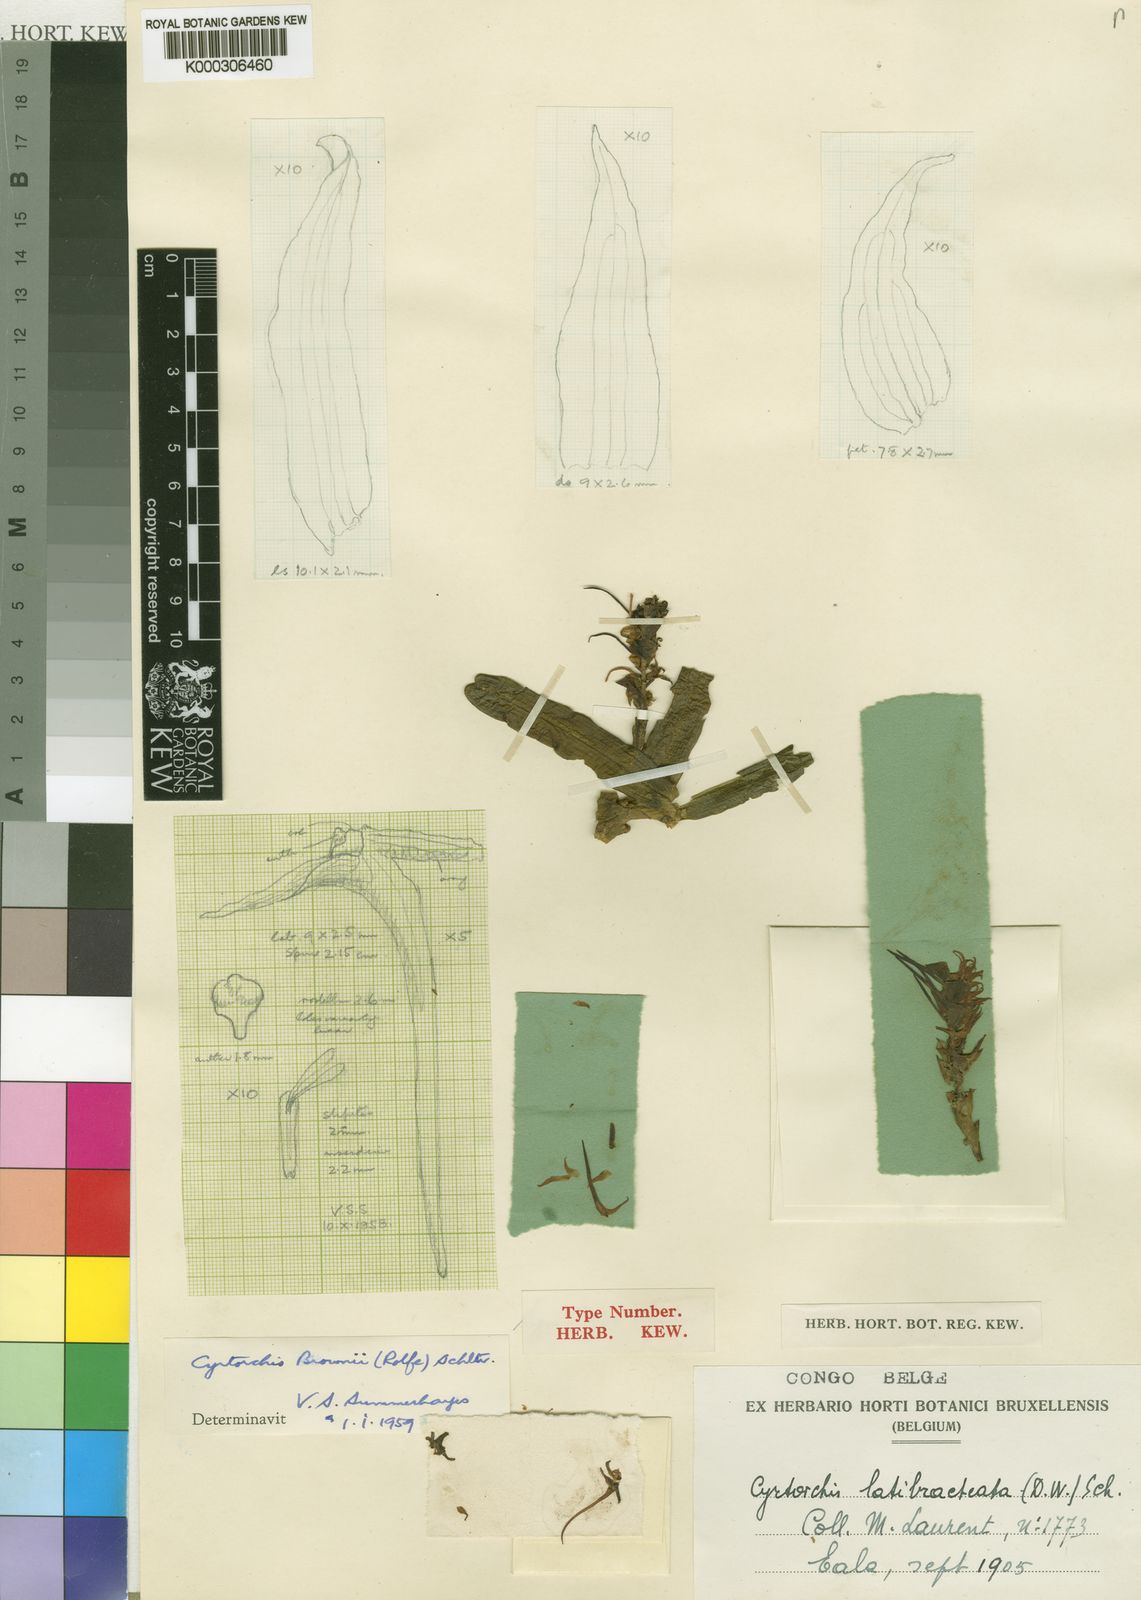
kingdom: Plantae
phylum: Tracheophyta
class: Liliopsida
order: Asparagales
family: Orchidaceae
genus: Cyrtorchis
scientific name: Cyrtorchis brownii
